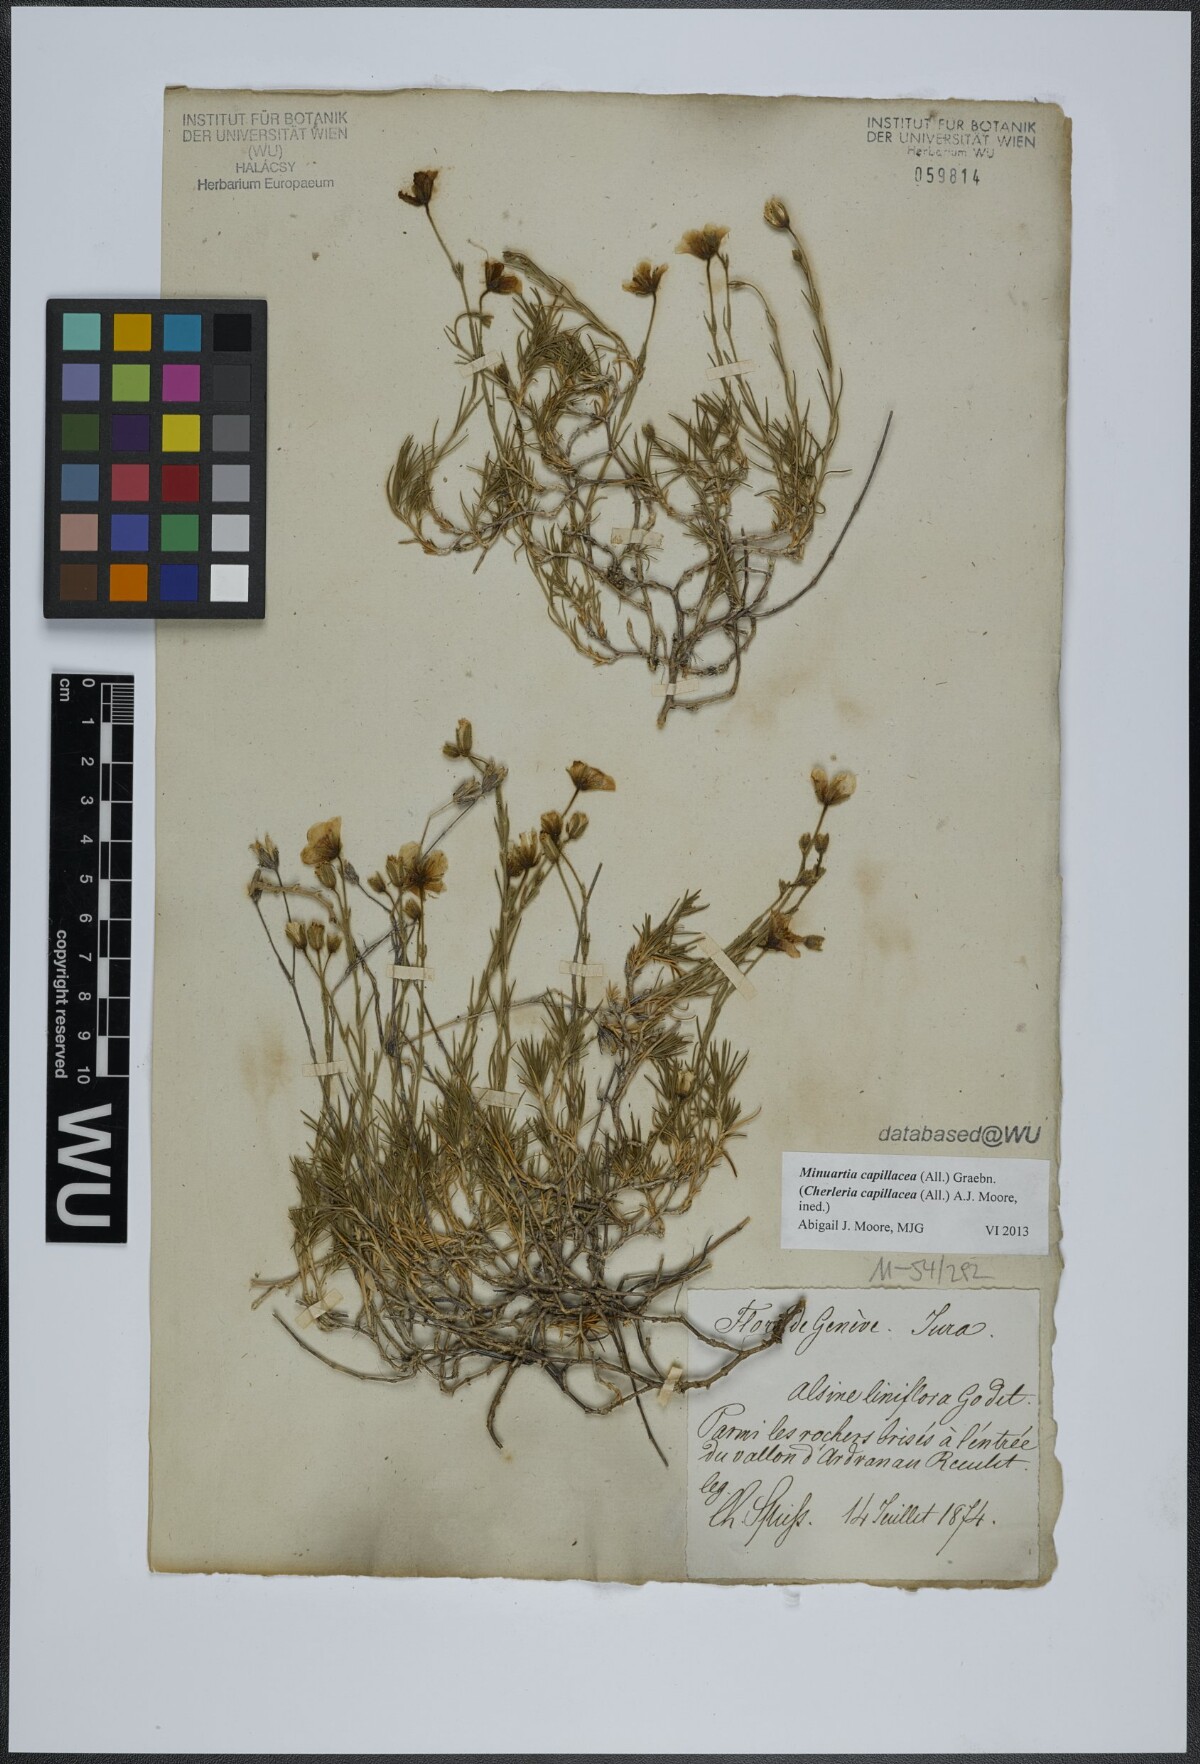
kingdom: Plantae
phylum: Tracheophyta
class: Magnoliopsida
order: Caryophyllales
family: Caryophyllaceae
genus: Cherleria
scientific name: Cherleria capillacea
